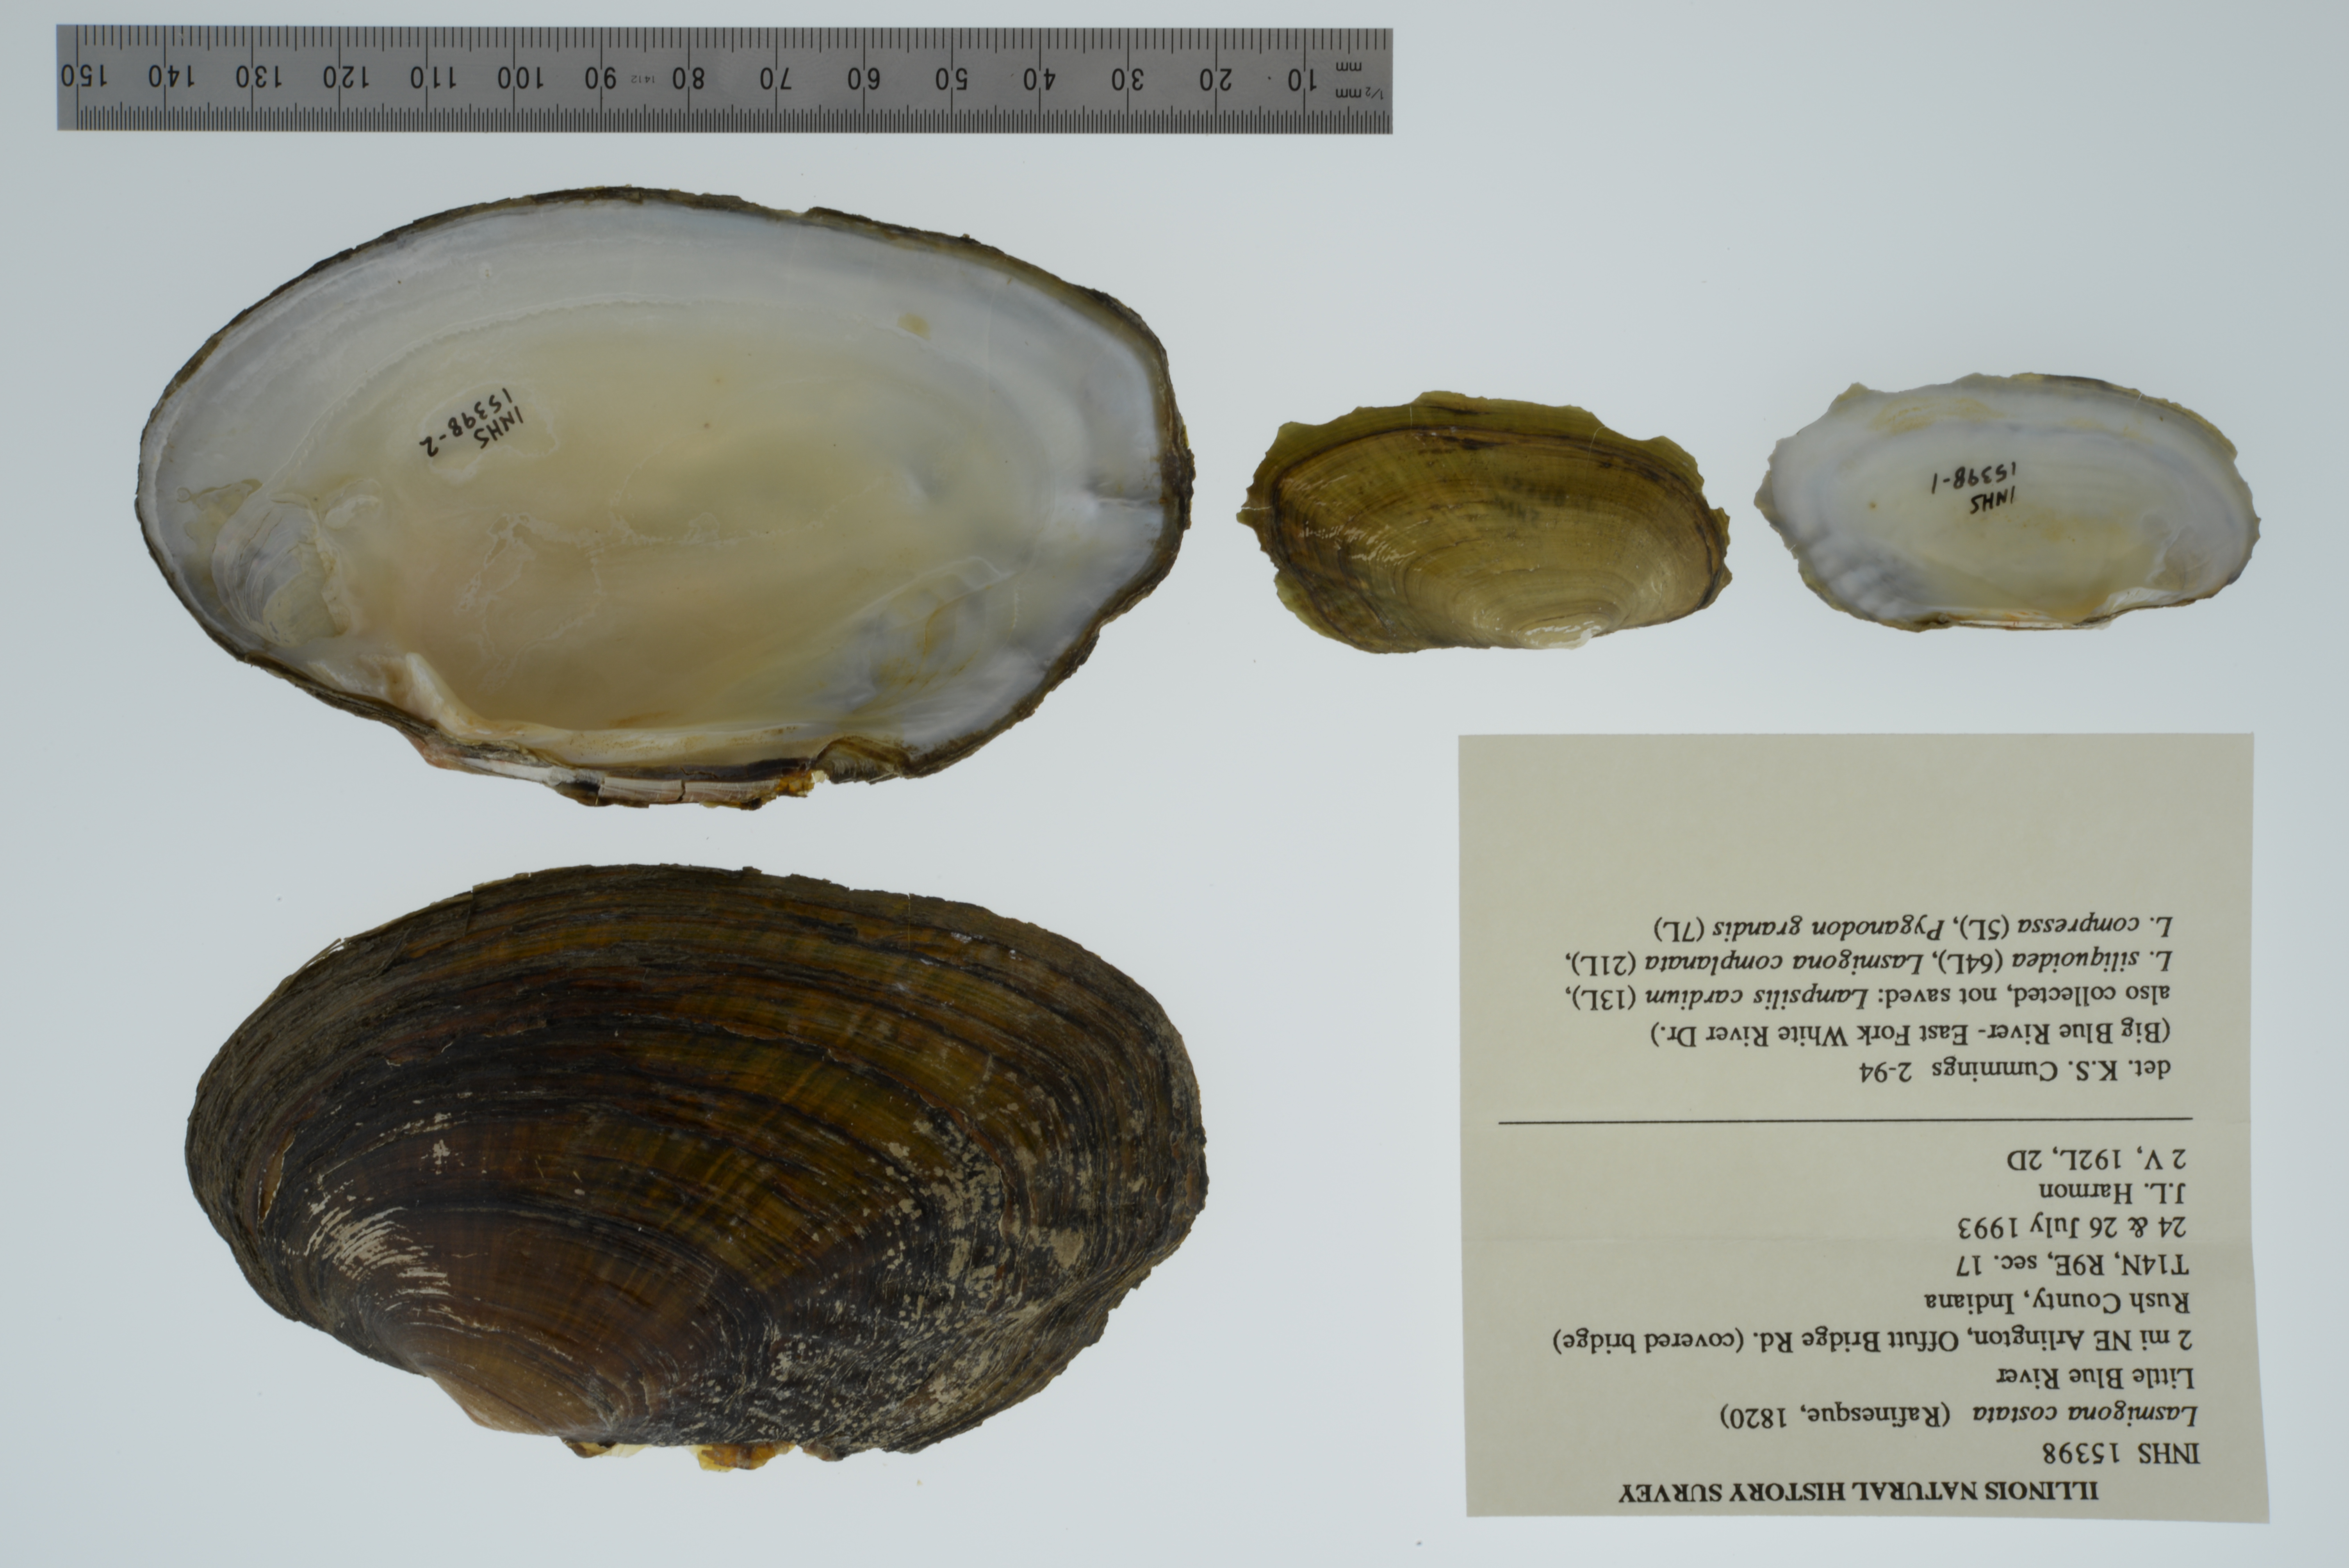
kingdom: Animalia
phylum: Mollusca
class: Bivalvia
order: Unionida
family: Unionidae
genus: Lasmigona
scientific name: Lasmigona costata
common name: Flutedshell
